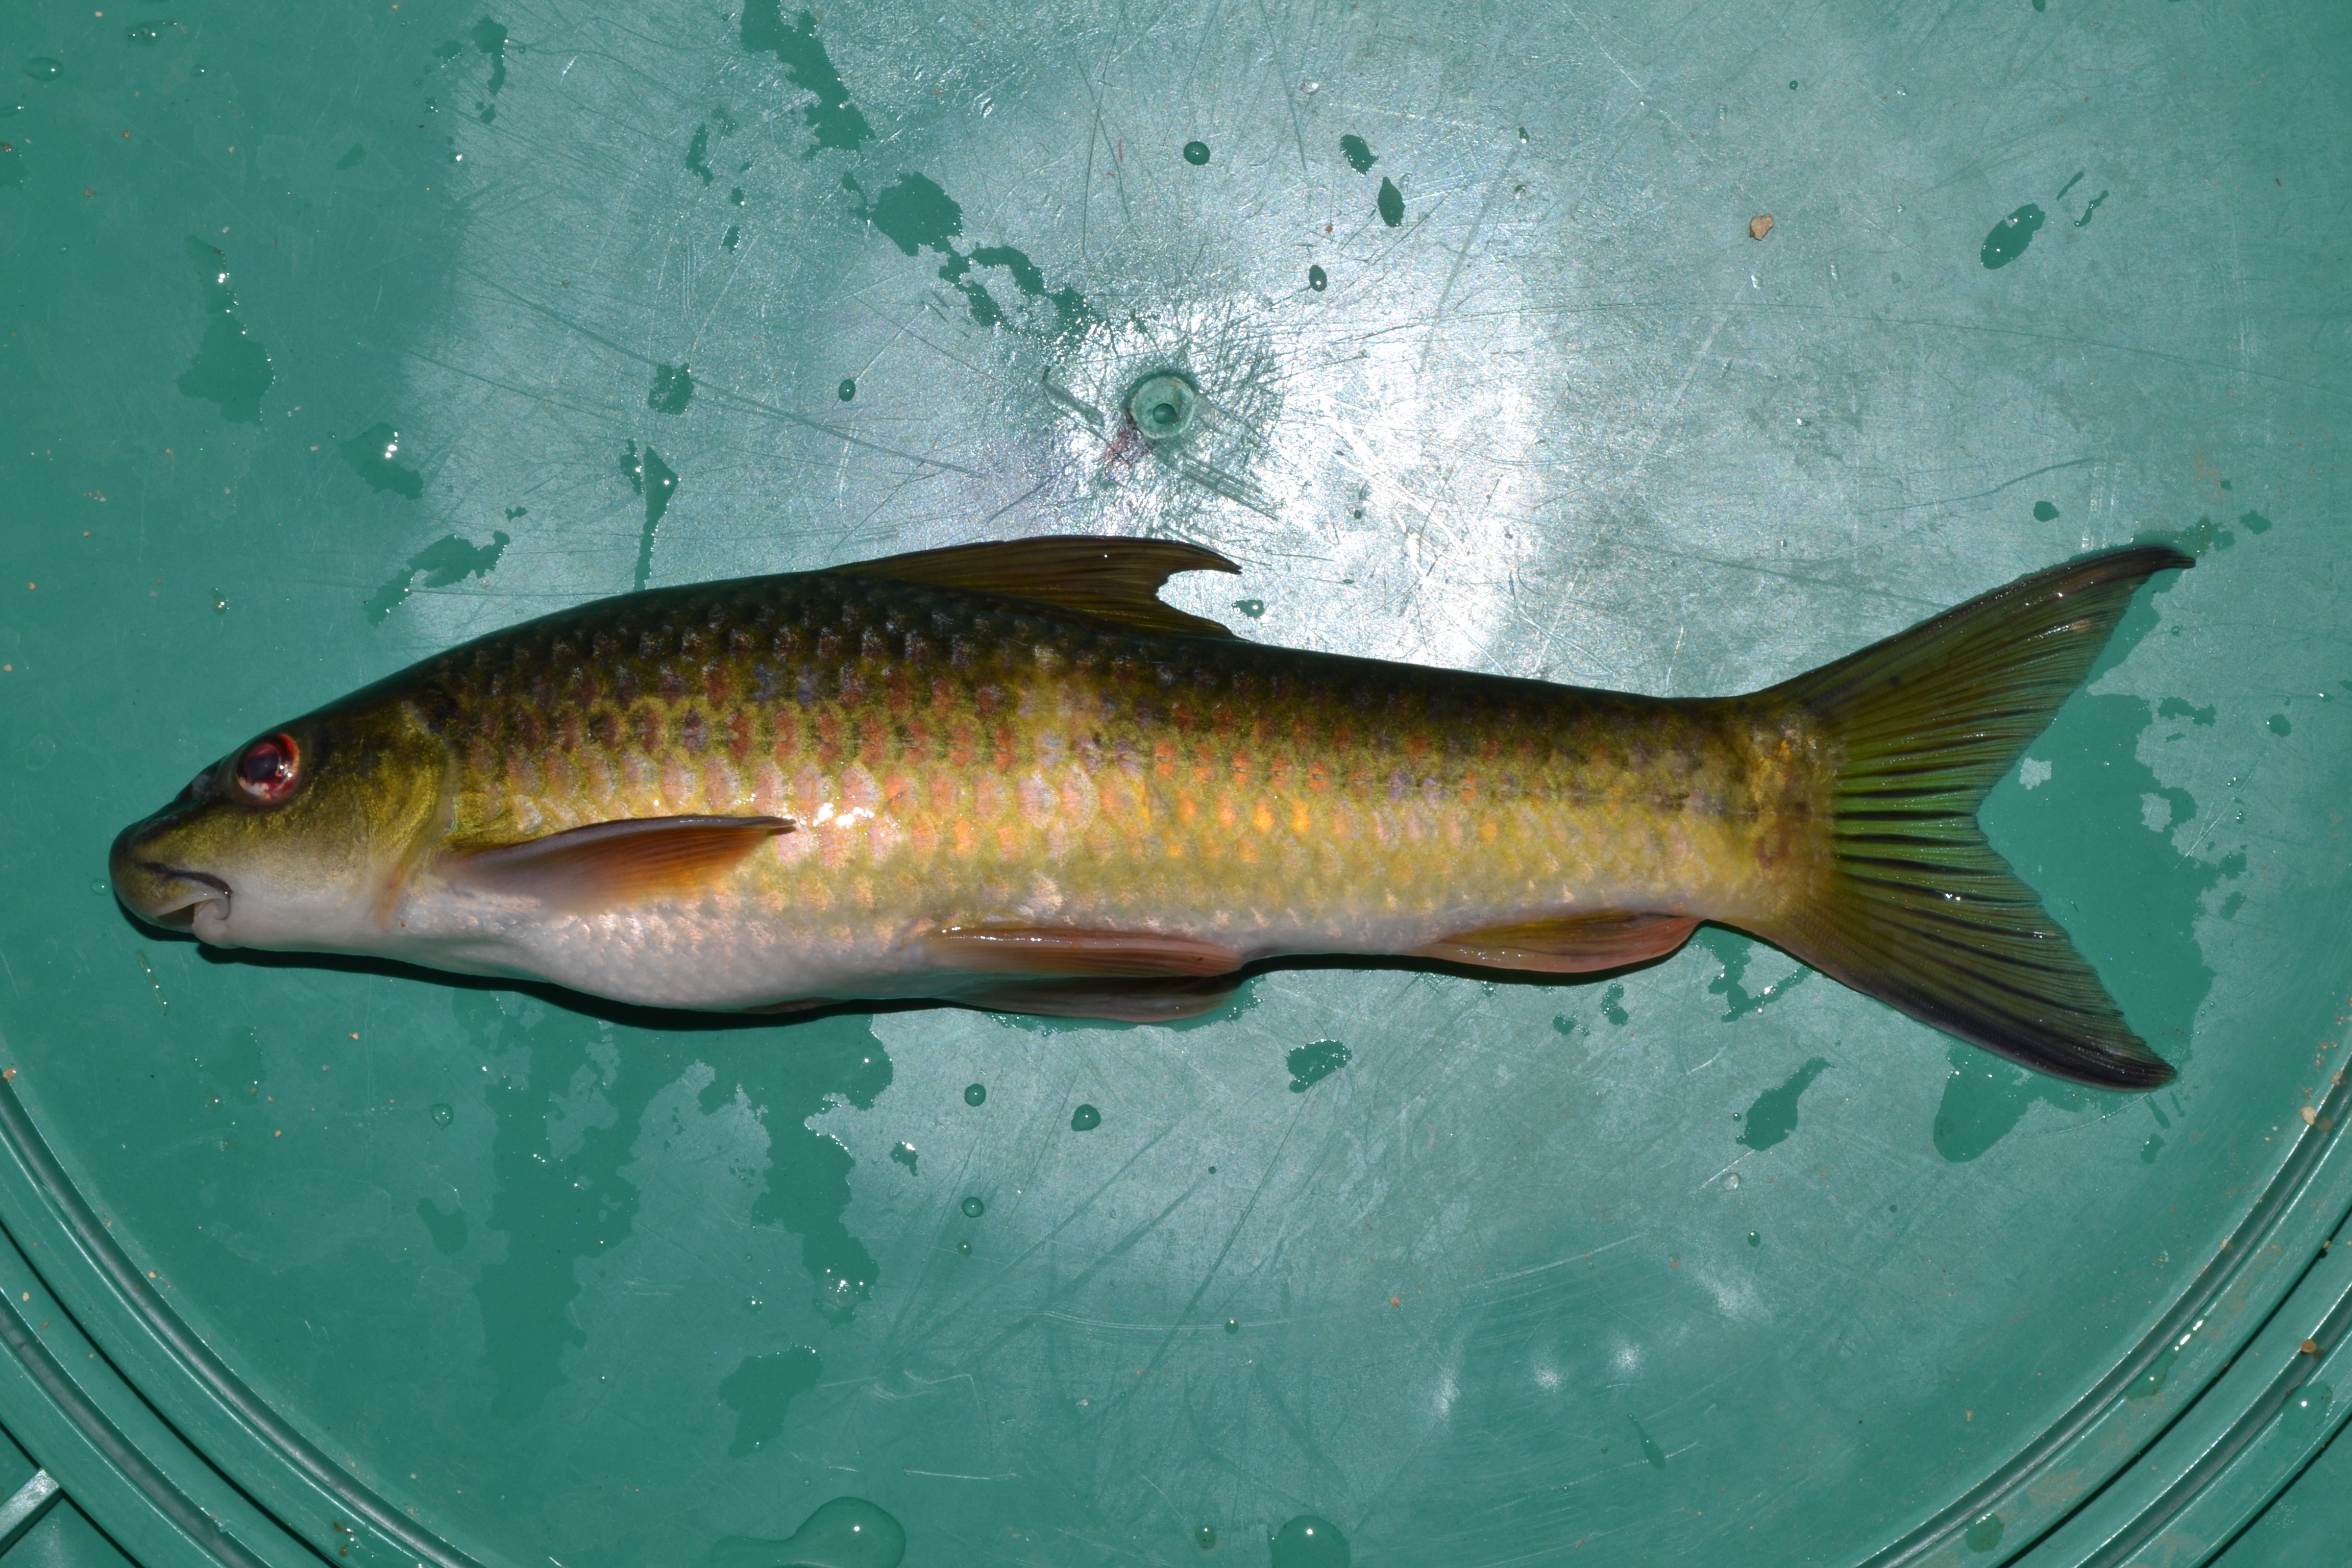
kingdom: Animalia
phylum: Chordata
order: Cypriniformes
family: Cyprinidae
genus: Labeo
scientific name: Labeo cylindricus
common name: Redeye labeo
